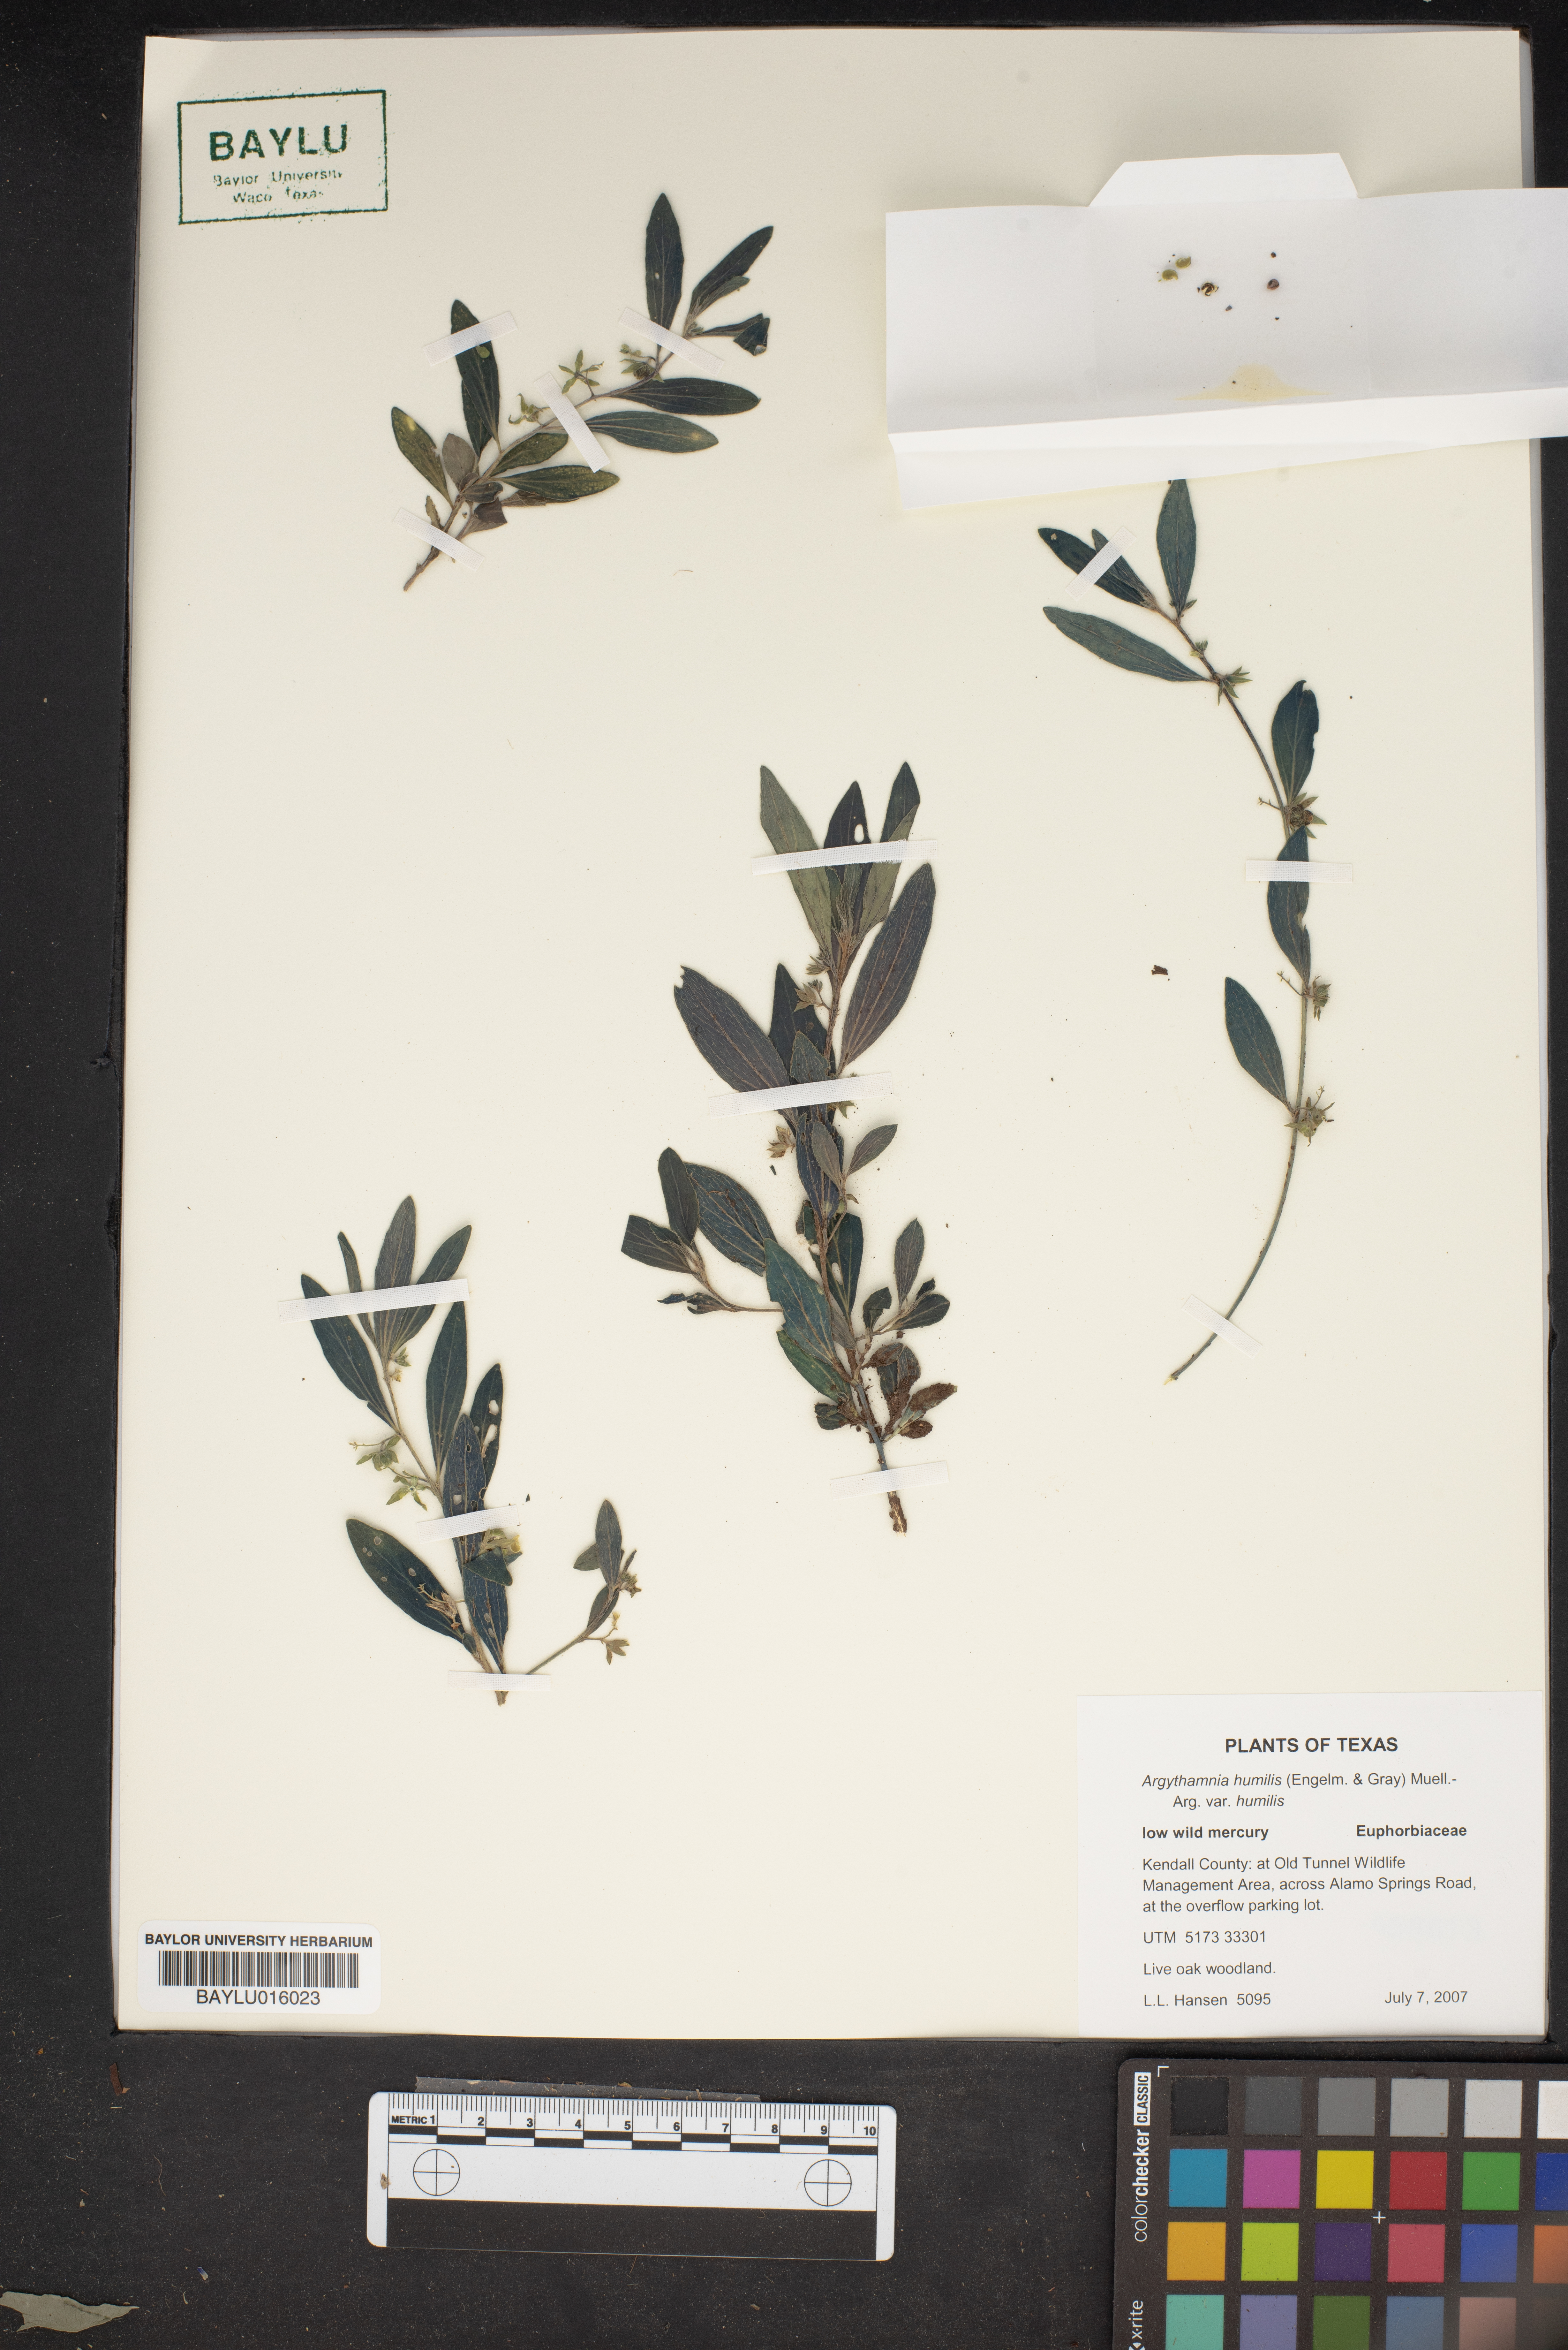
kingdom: Plantae
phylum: Tracheophyta
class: Magnoliopsida
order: Malpighiales
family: Euphorbiaceae
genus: Ditaxis
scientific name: Ditaxis humilis
